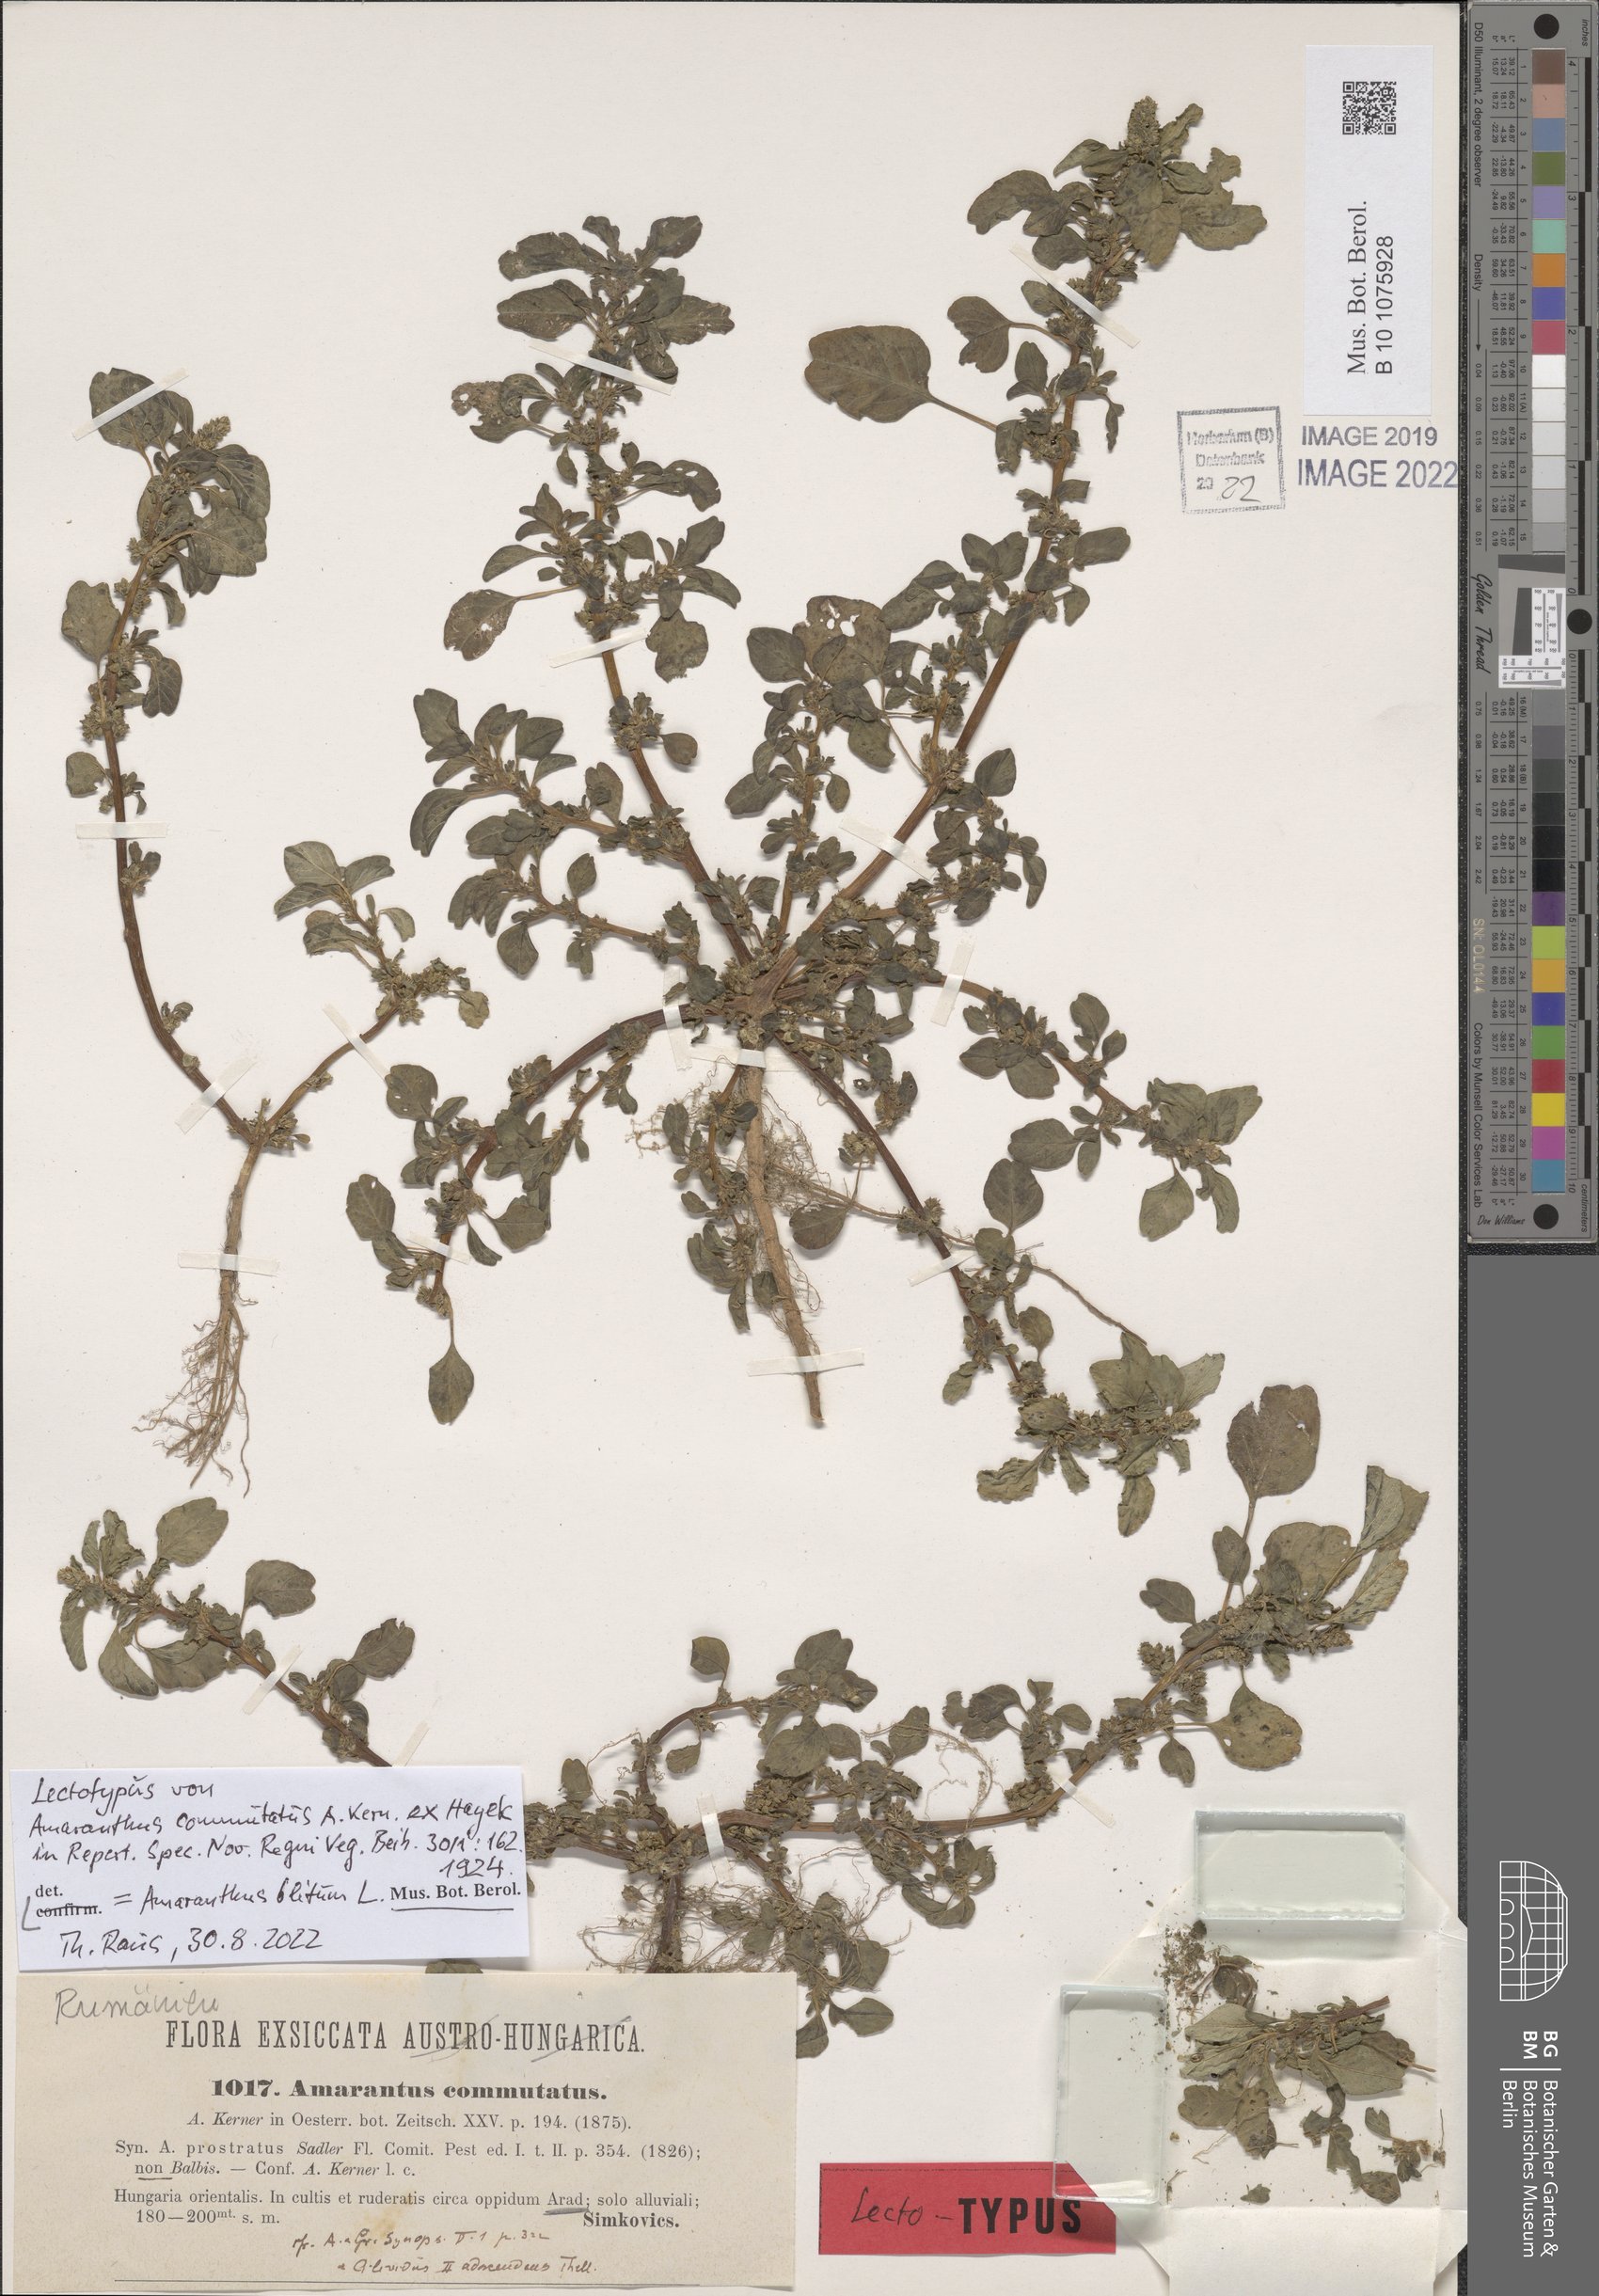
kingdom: Plantae
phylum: Tracheophyta
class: Magnoliopsida
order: Caryophyllales
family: Amaranthaceae
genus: Amaranthus
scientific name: Amaranthus blitum
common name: Purple amaranth
